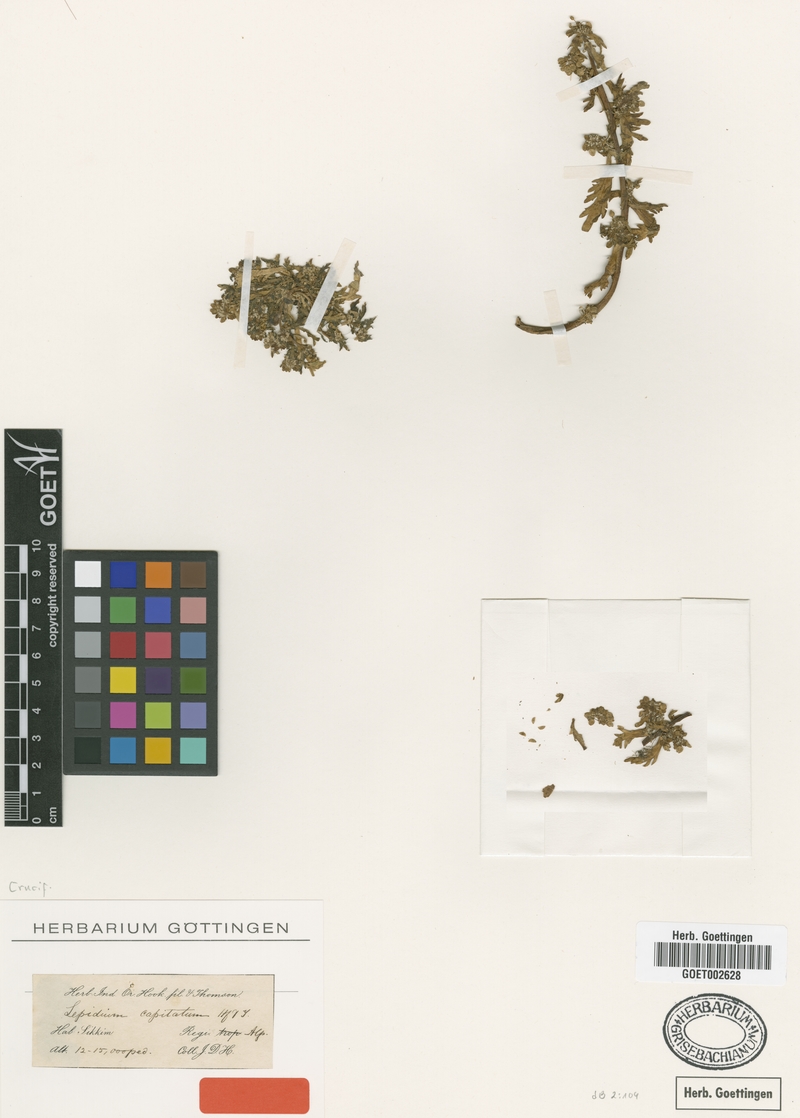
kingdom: Plantae
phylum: Tracheophyta
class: Magnoliopsida
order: Brassicales
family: Brassicaceae
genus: Lepidium
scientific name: Lepidium capitatum
